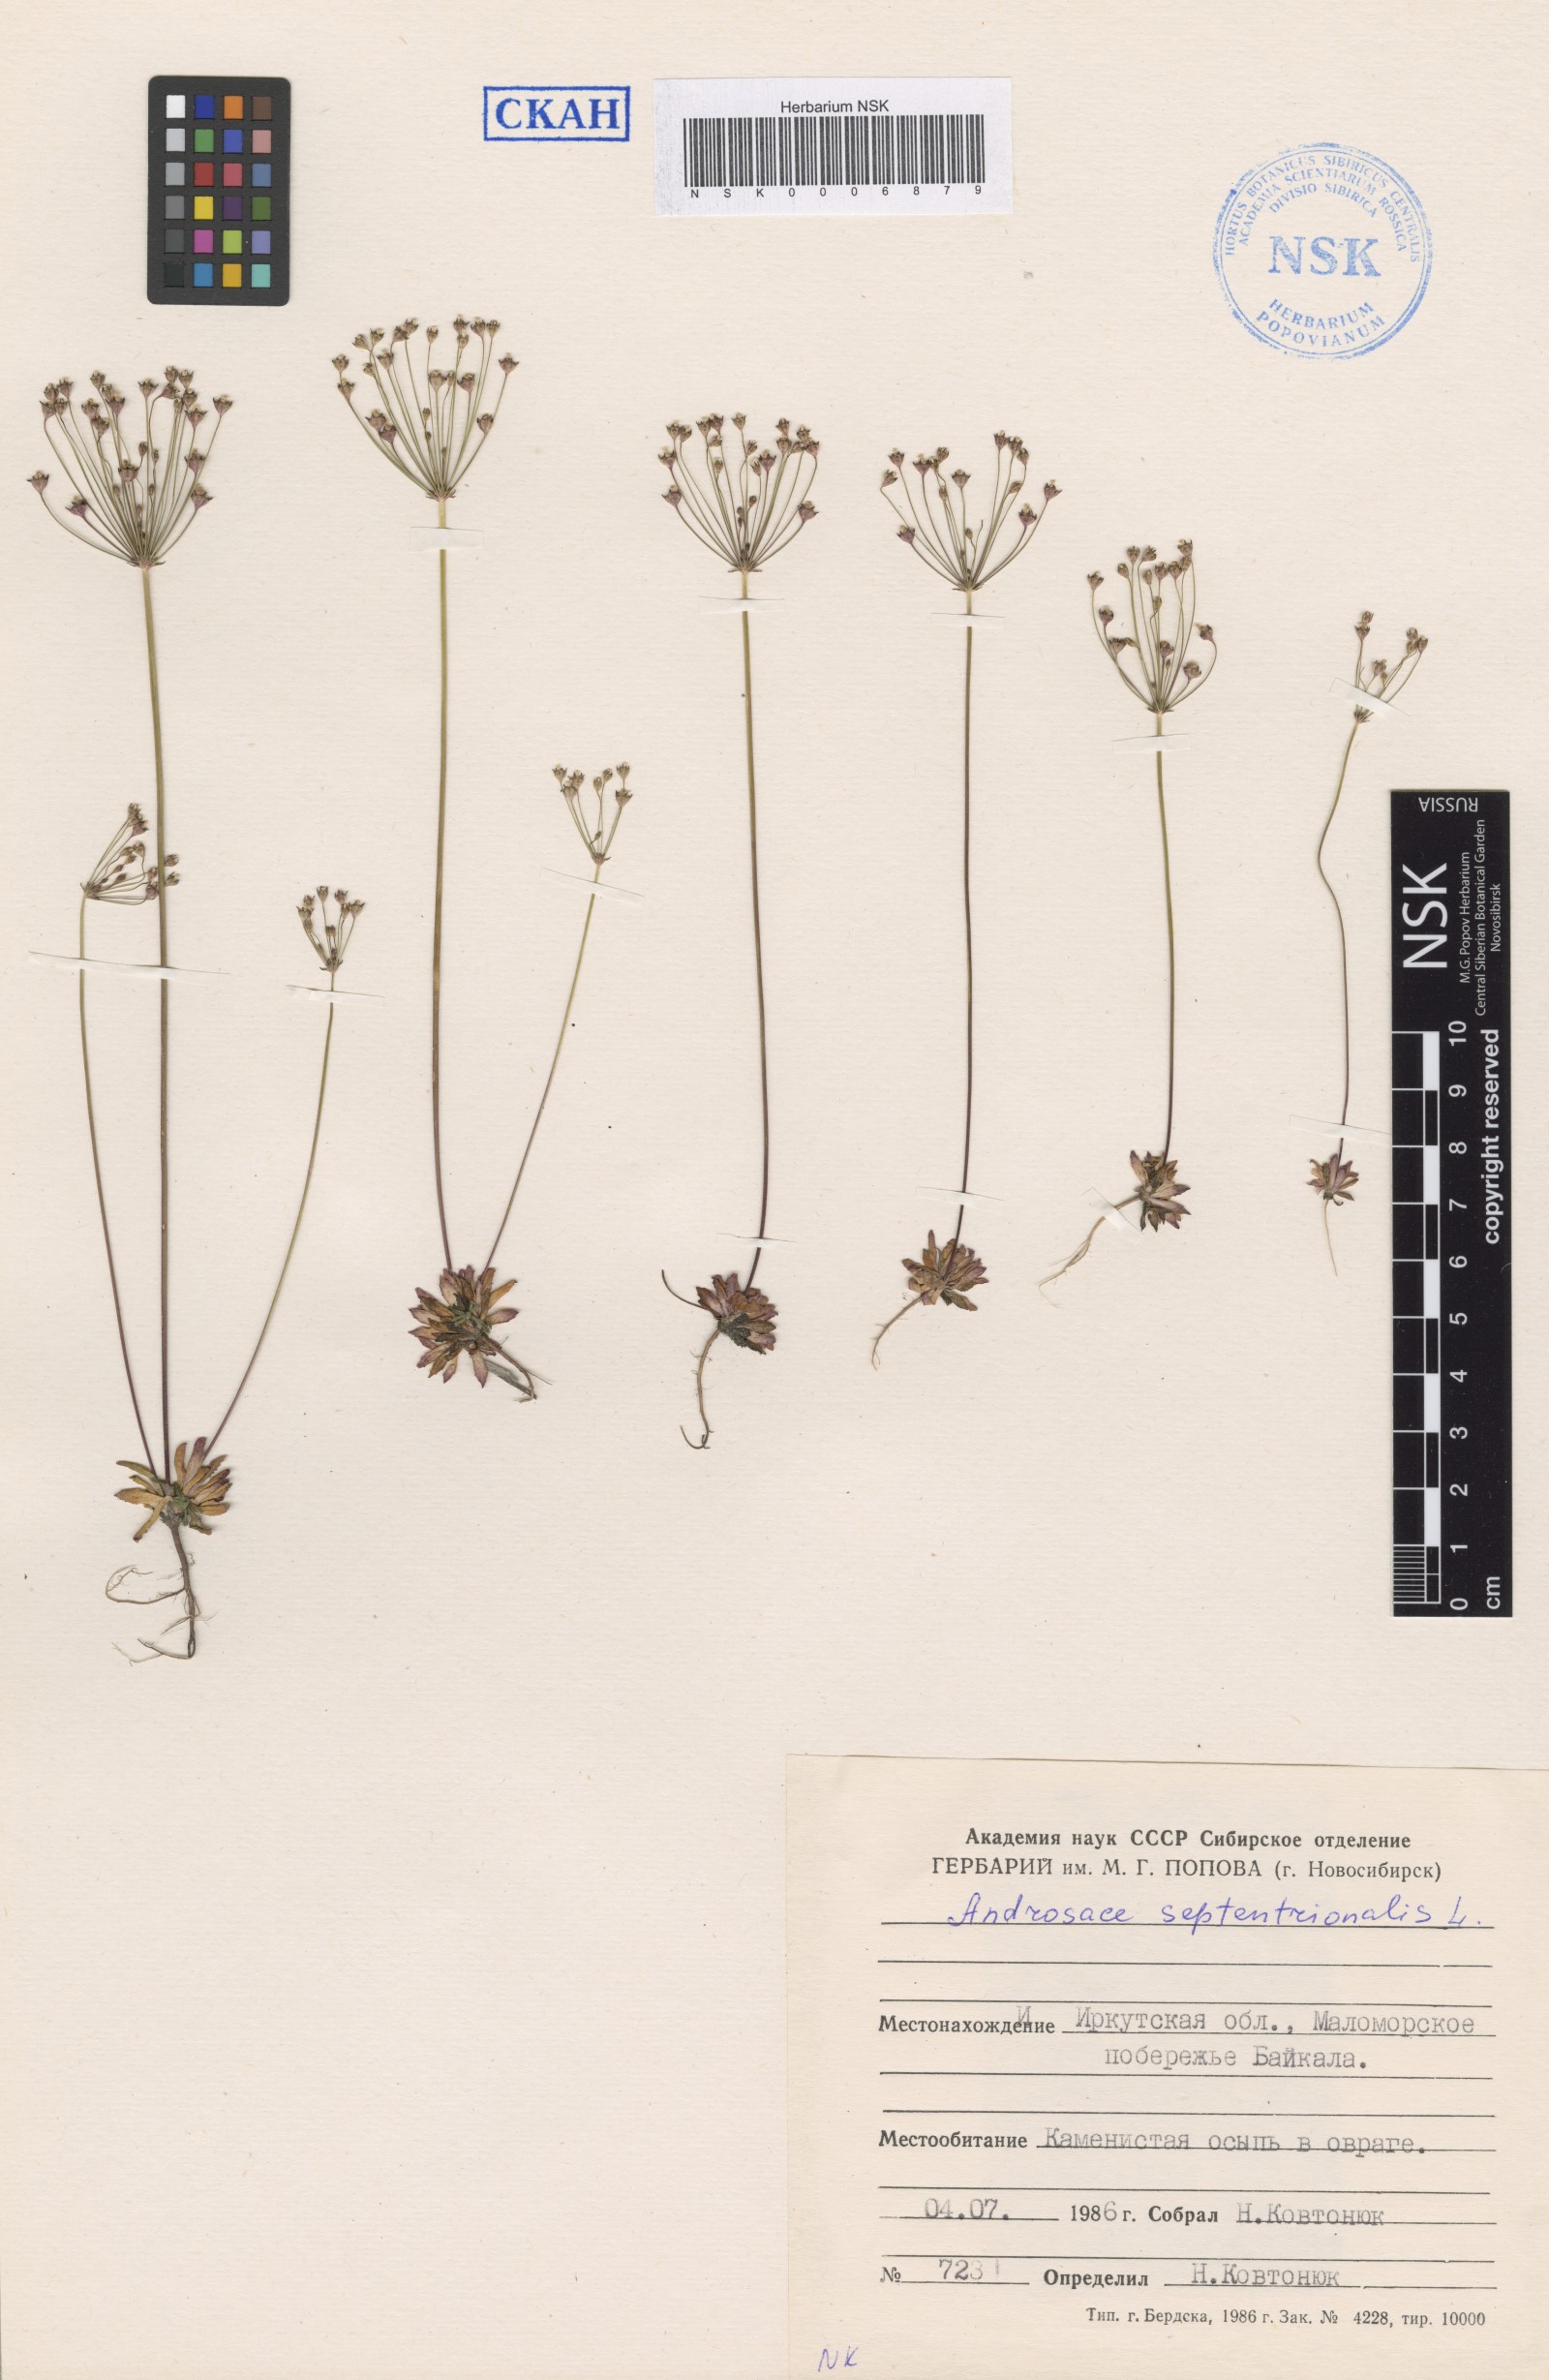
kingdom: Plantae
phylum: Tracheophyta
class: Magnoliopsida
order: Ericales
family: Primulaceae
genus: Androsace
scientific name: Androsace septentrionalis
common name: Hairy northern fairy-candelabra
